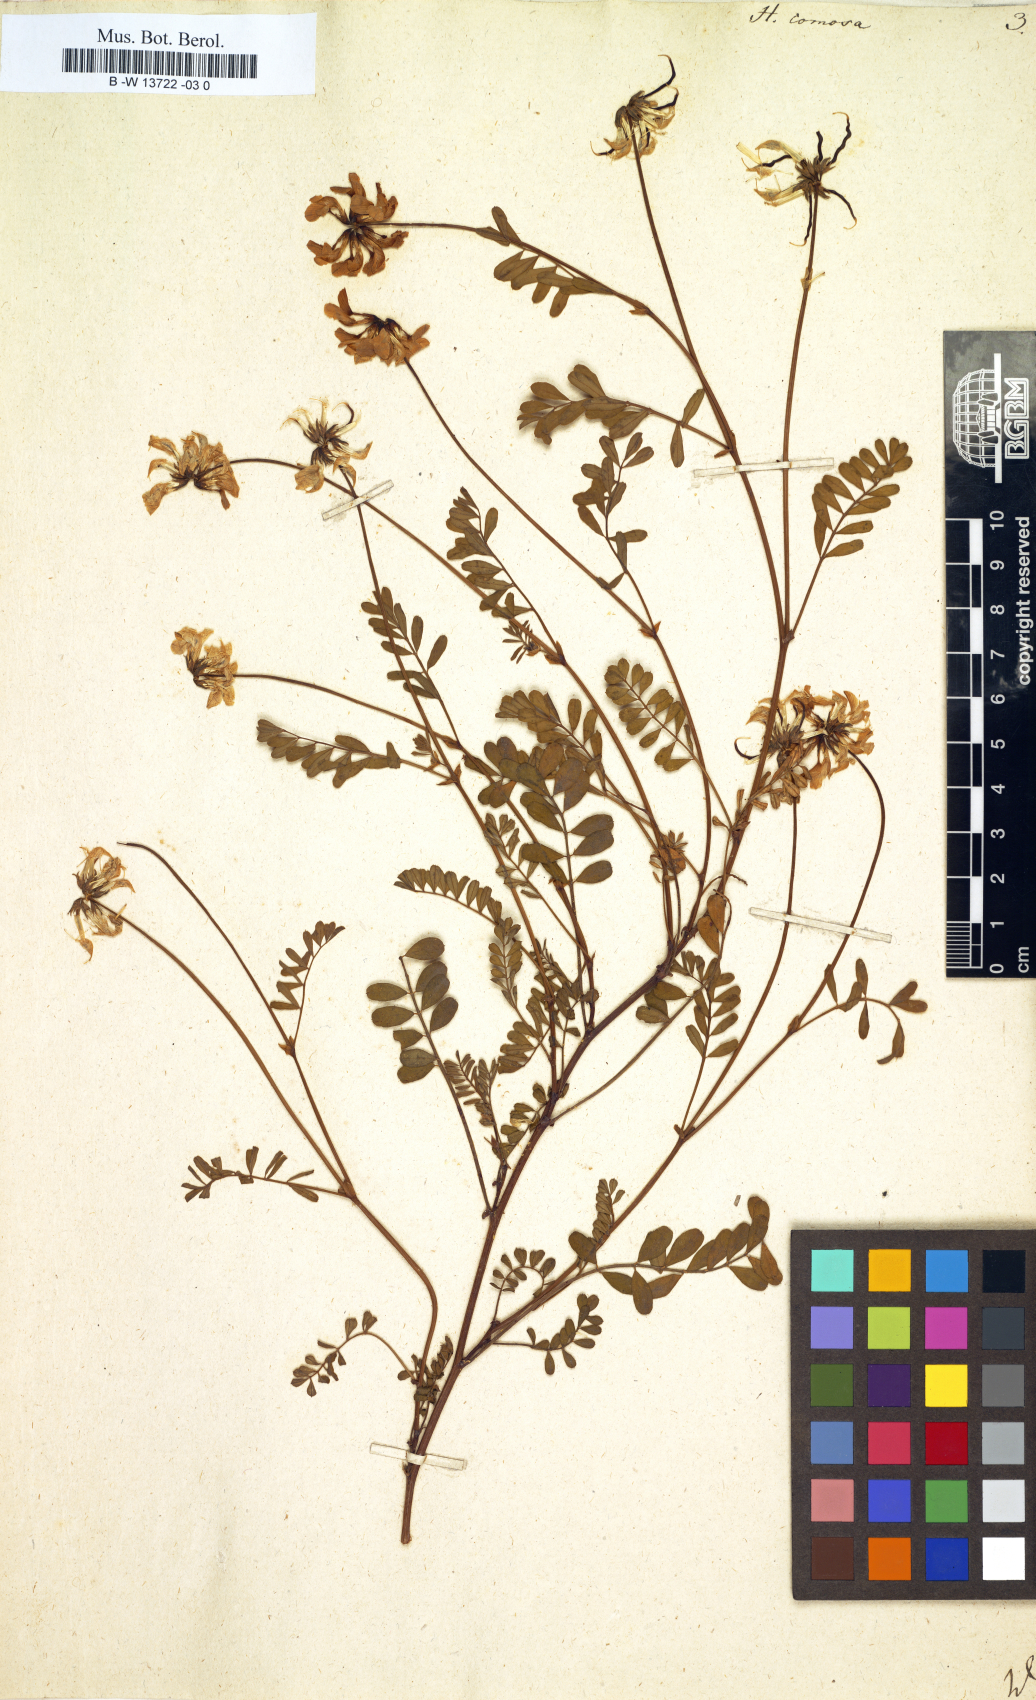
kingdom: Plantae
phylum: Tracheophyta
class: Magnoliopsida
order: Fabales
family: Fabaceae
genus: Hippocrepis
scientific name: Hippocrepis comosa
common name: Horseshoe vetch
